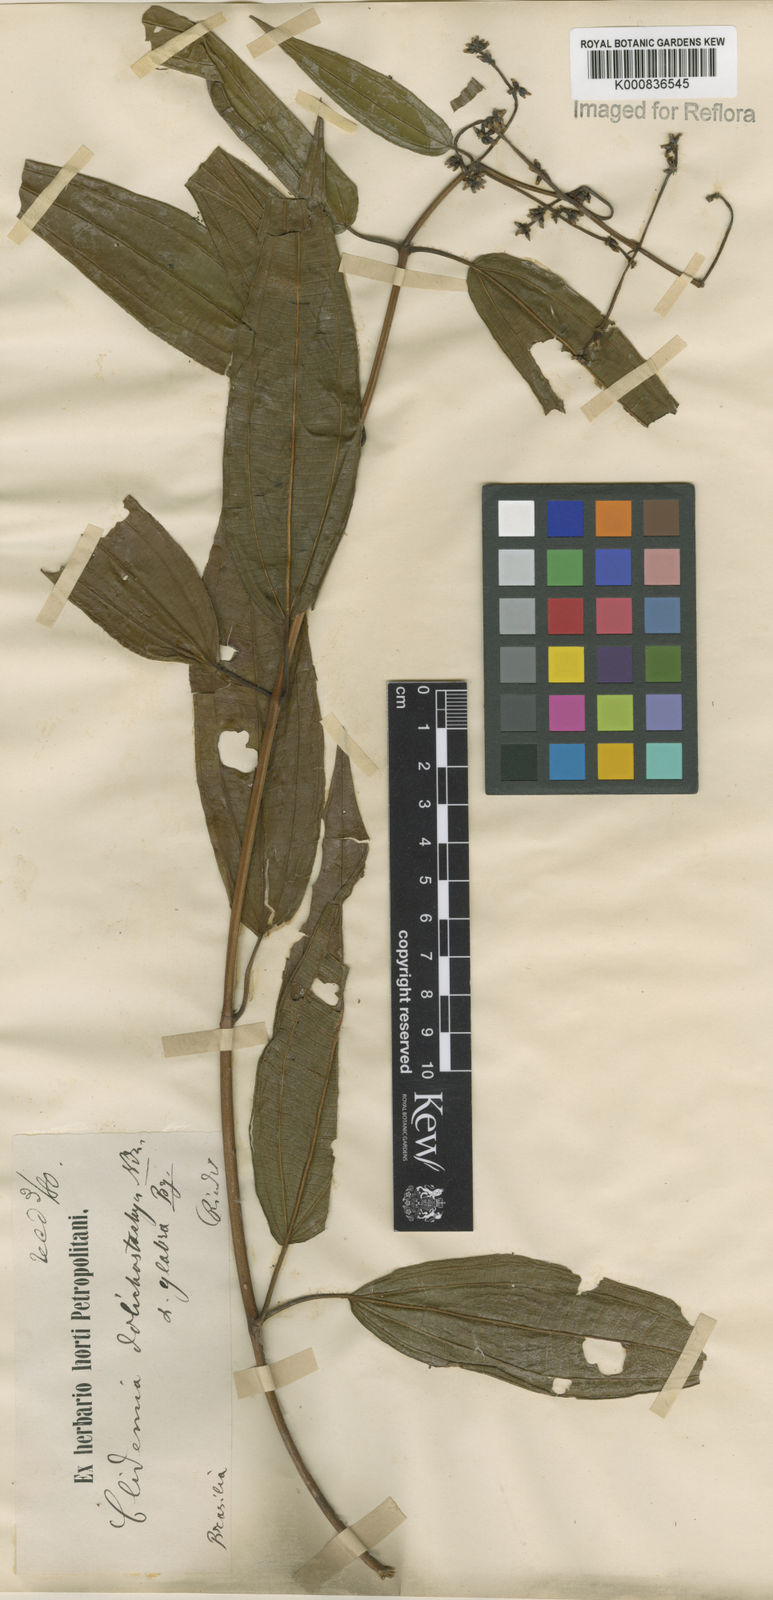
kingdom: Plantae
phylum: Tracheophyta
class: Magnoliopsida
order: Myrtales
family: Melastomataceae
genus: Miconia
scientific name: Miconia dolichostachya
